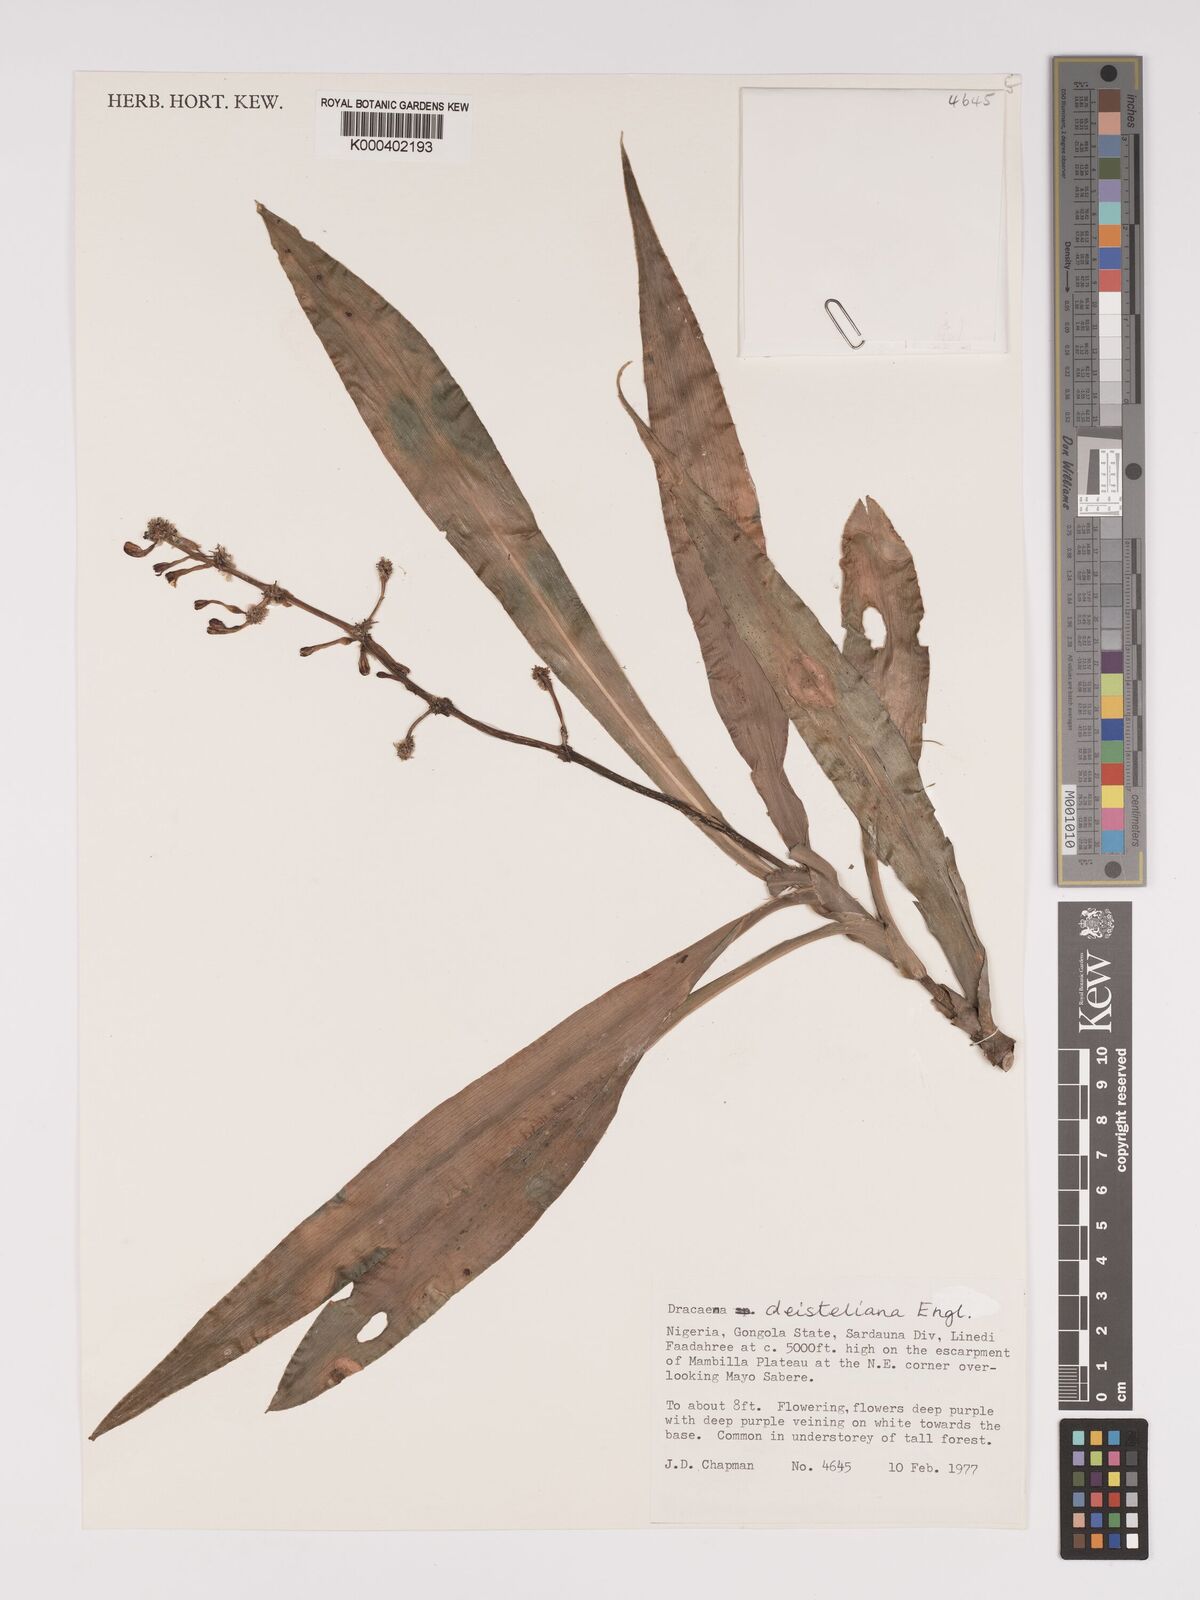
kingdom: Plantae
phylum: Tracheophyta
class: Liliopsida
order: Asparagales
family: Asparagaceae
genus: Dracaena
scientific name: Dracaena fragrans
